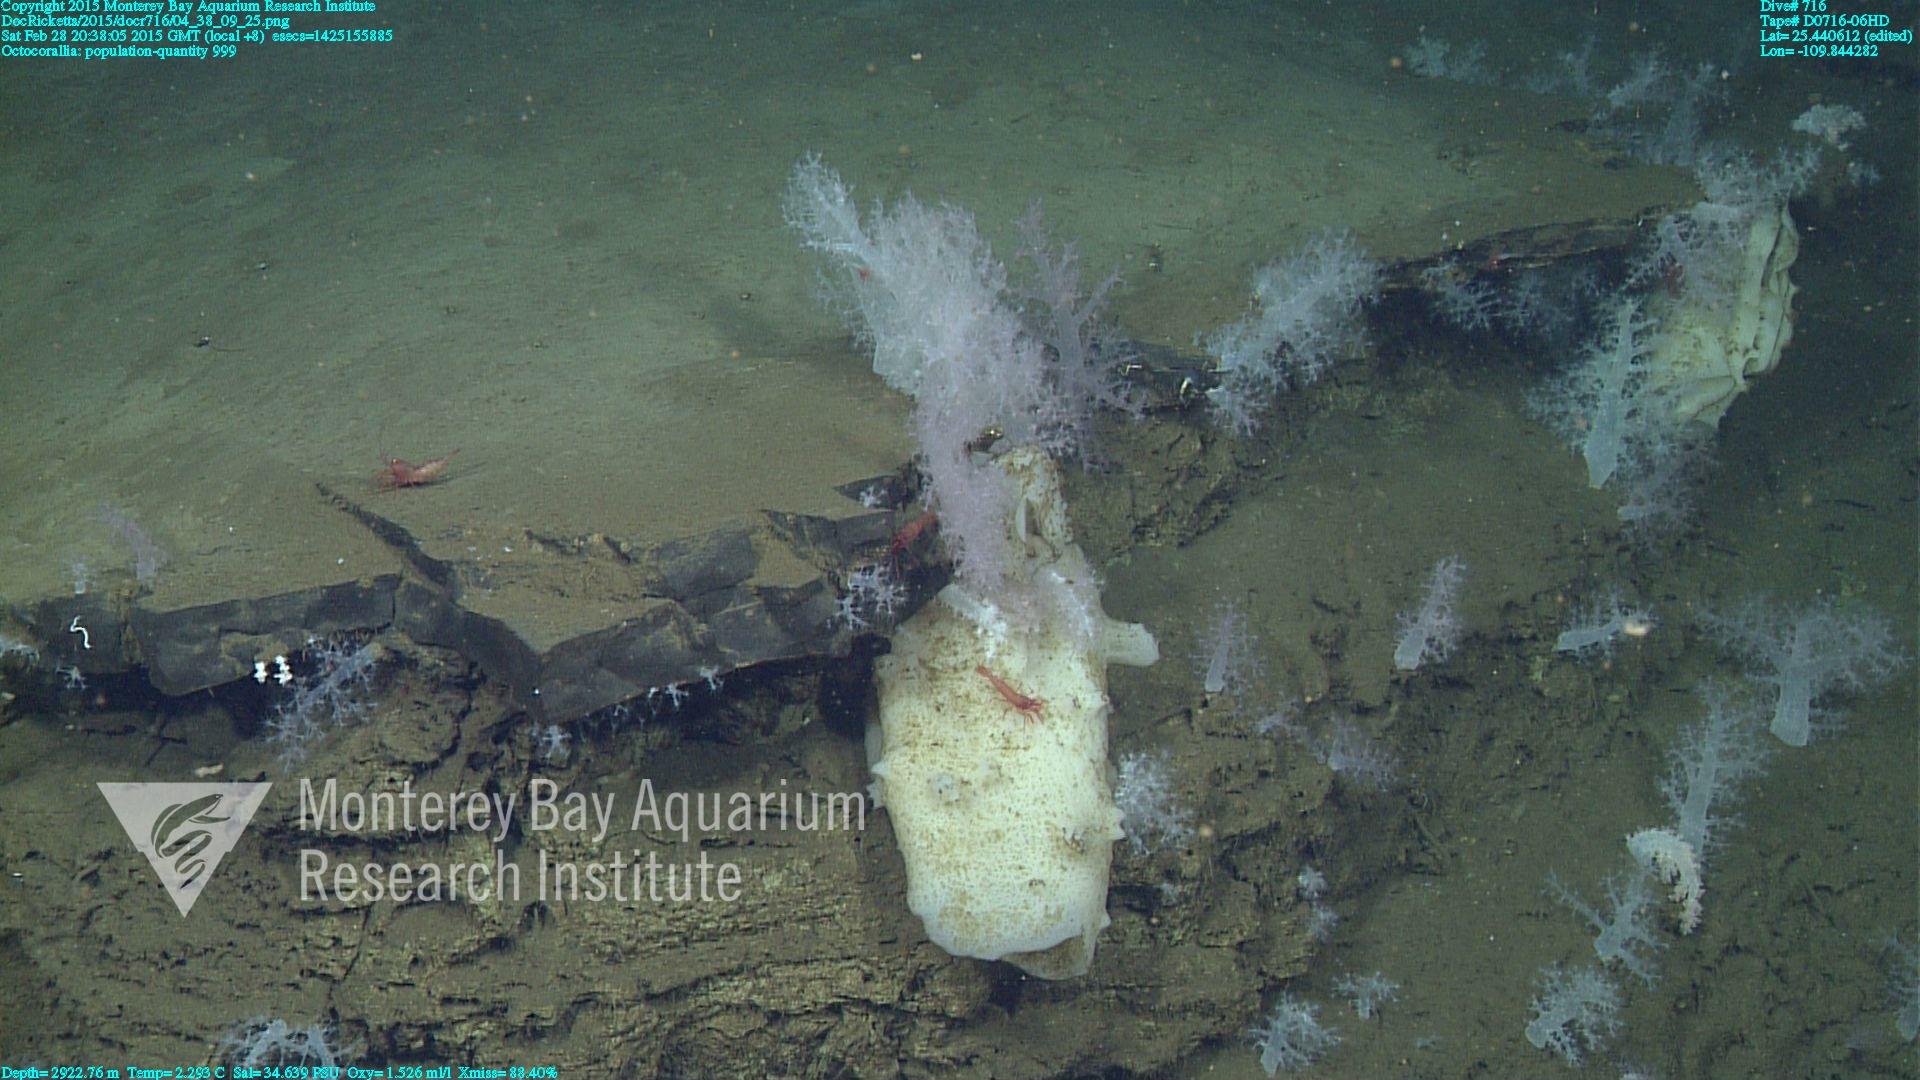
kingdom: Animalia
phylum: Cnidaria
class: Anthozoa
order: Malacalcyonacea
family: Alcyoniidae
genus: Gersemia
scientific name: Gersemia juliepackardae
